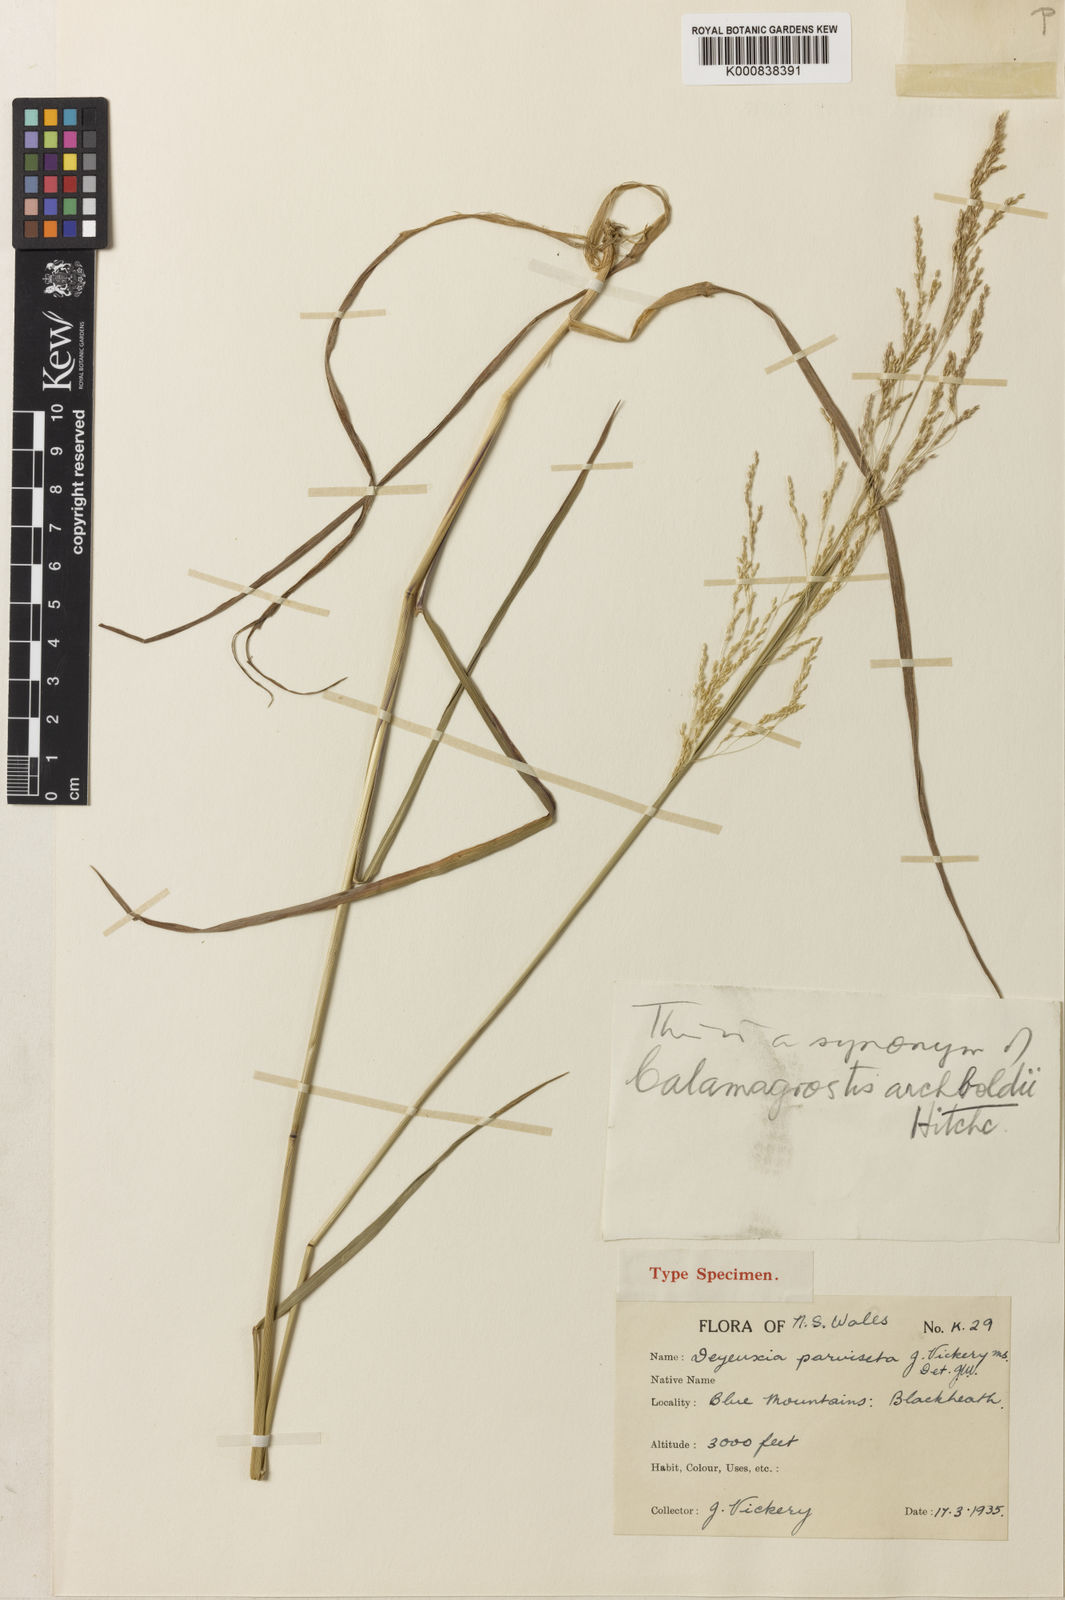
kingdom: Plantae
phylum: Tracheophyta
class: Liliopsida
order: Poales
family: Poaceae
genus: Calamagrostis
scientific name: Calamagrostis parviseta
